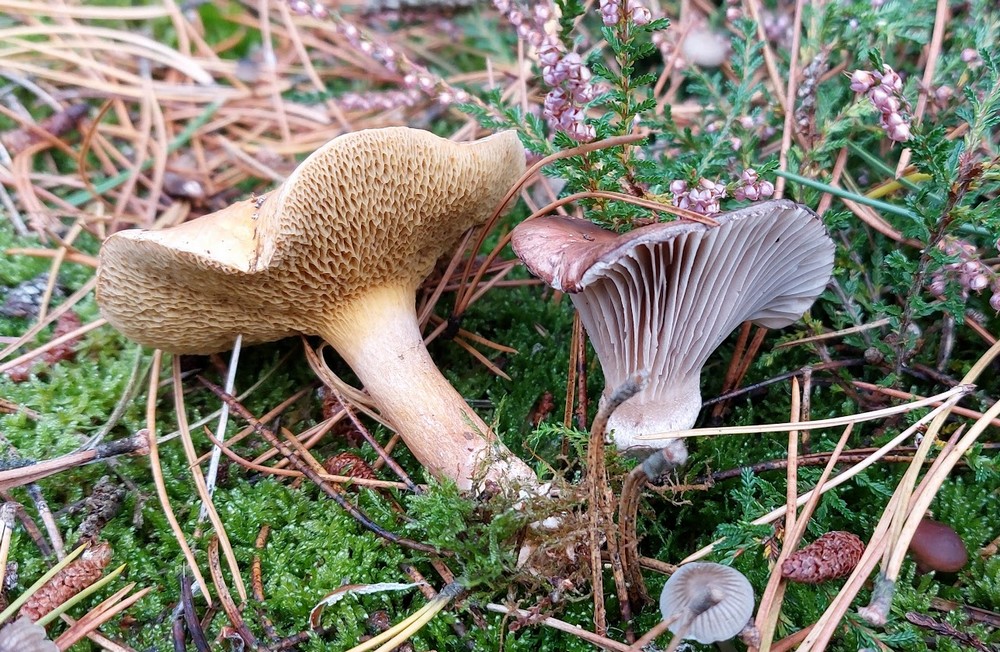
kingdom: Fungi
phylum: Basidiomycota
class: Agaricomycetes
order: Boletales
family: Gomphidiaceae
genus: Gomphidius
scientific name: Gomphidius roseus
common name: rosenrød slimslør
